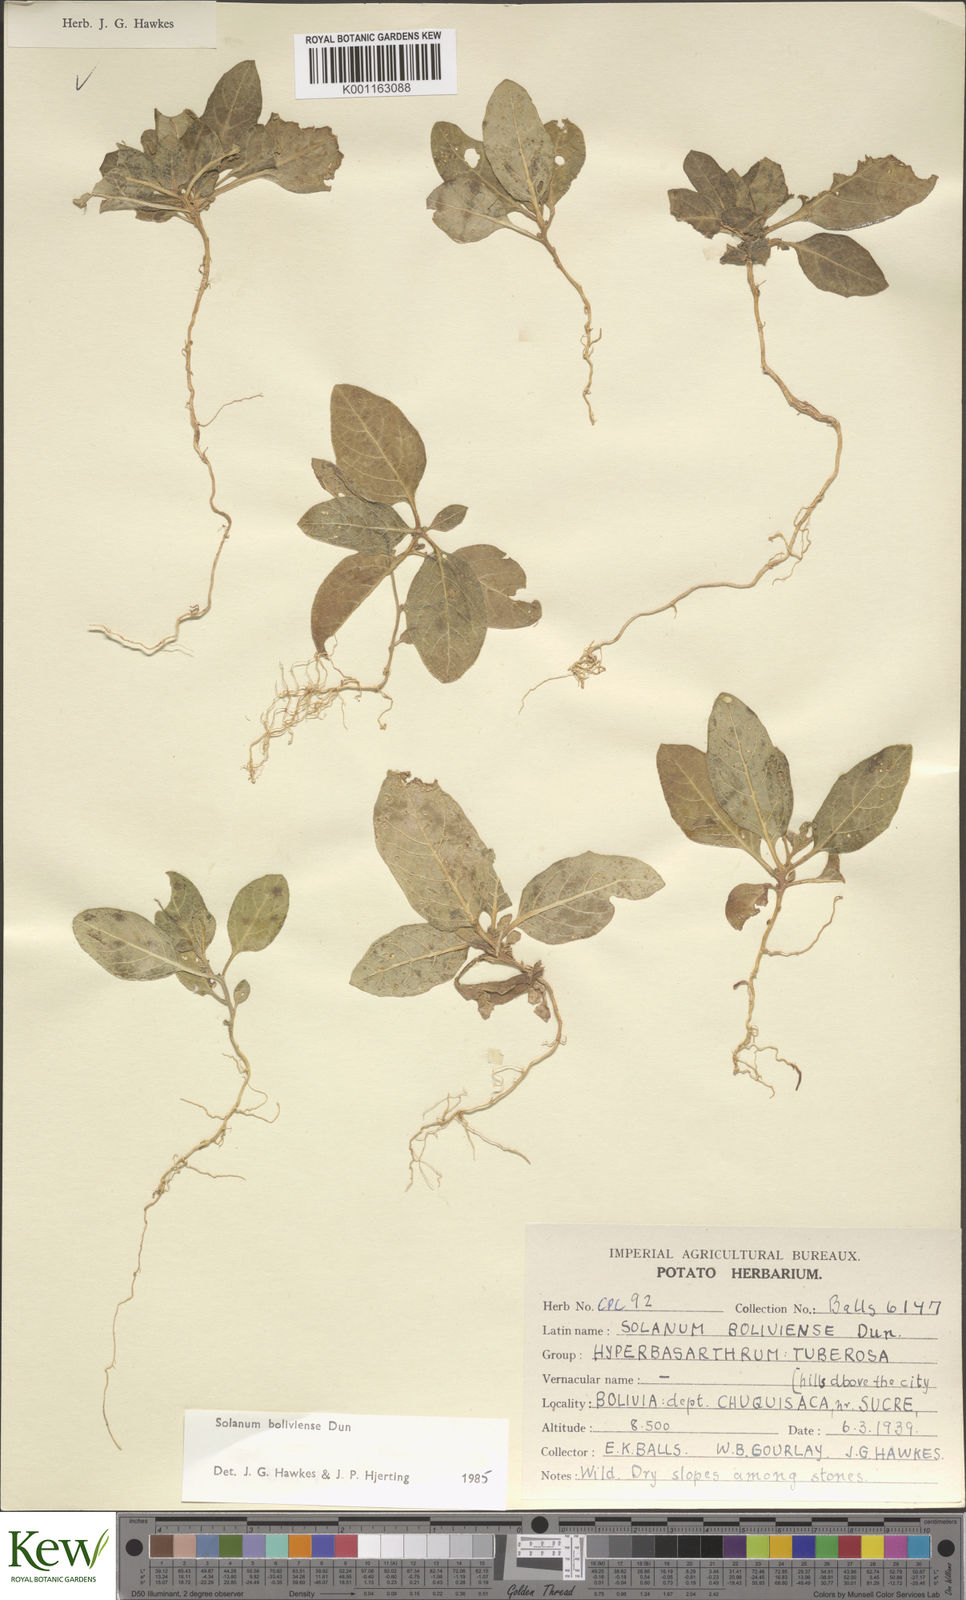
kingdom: Plantae
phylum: Tracheophyta
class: Magnoliopsida
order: Solanales
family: Solanaceae
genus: Solanum
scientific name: Solanum boliviense
